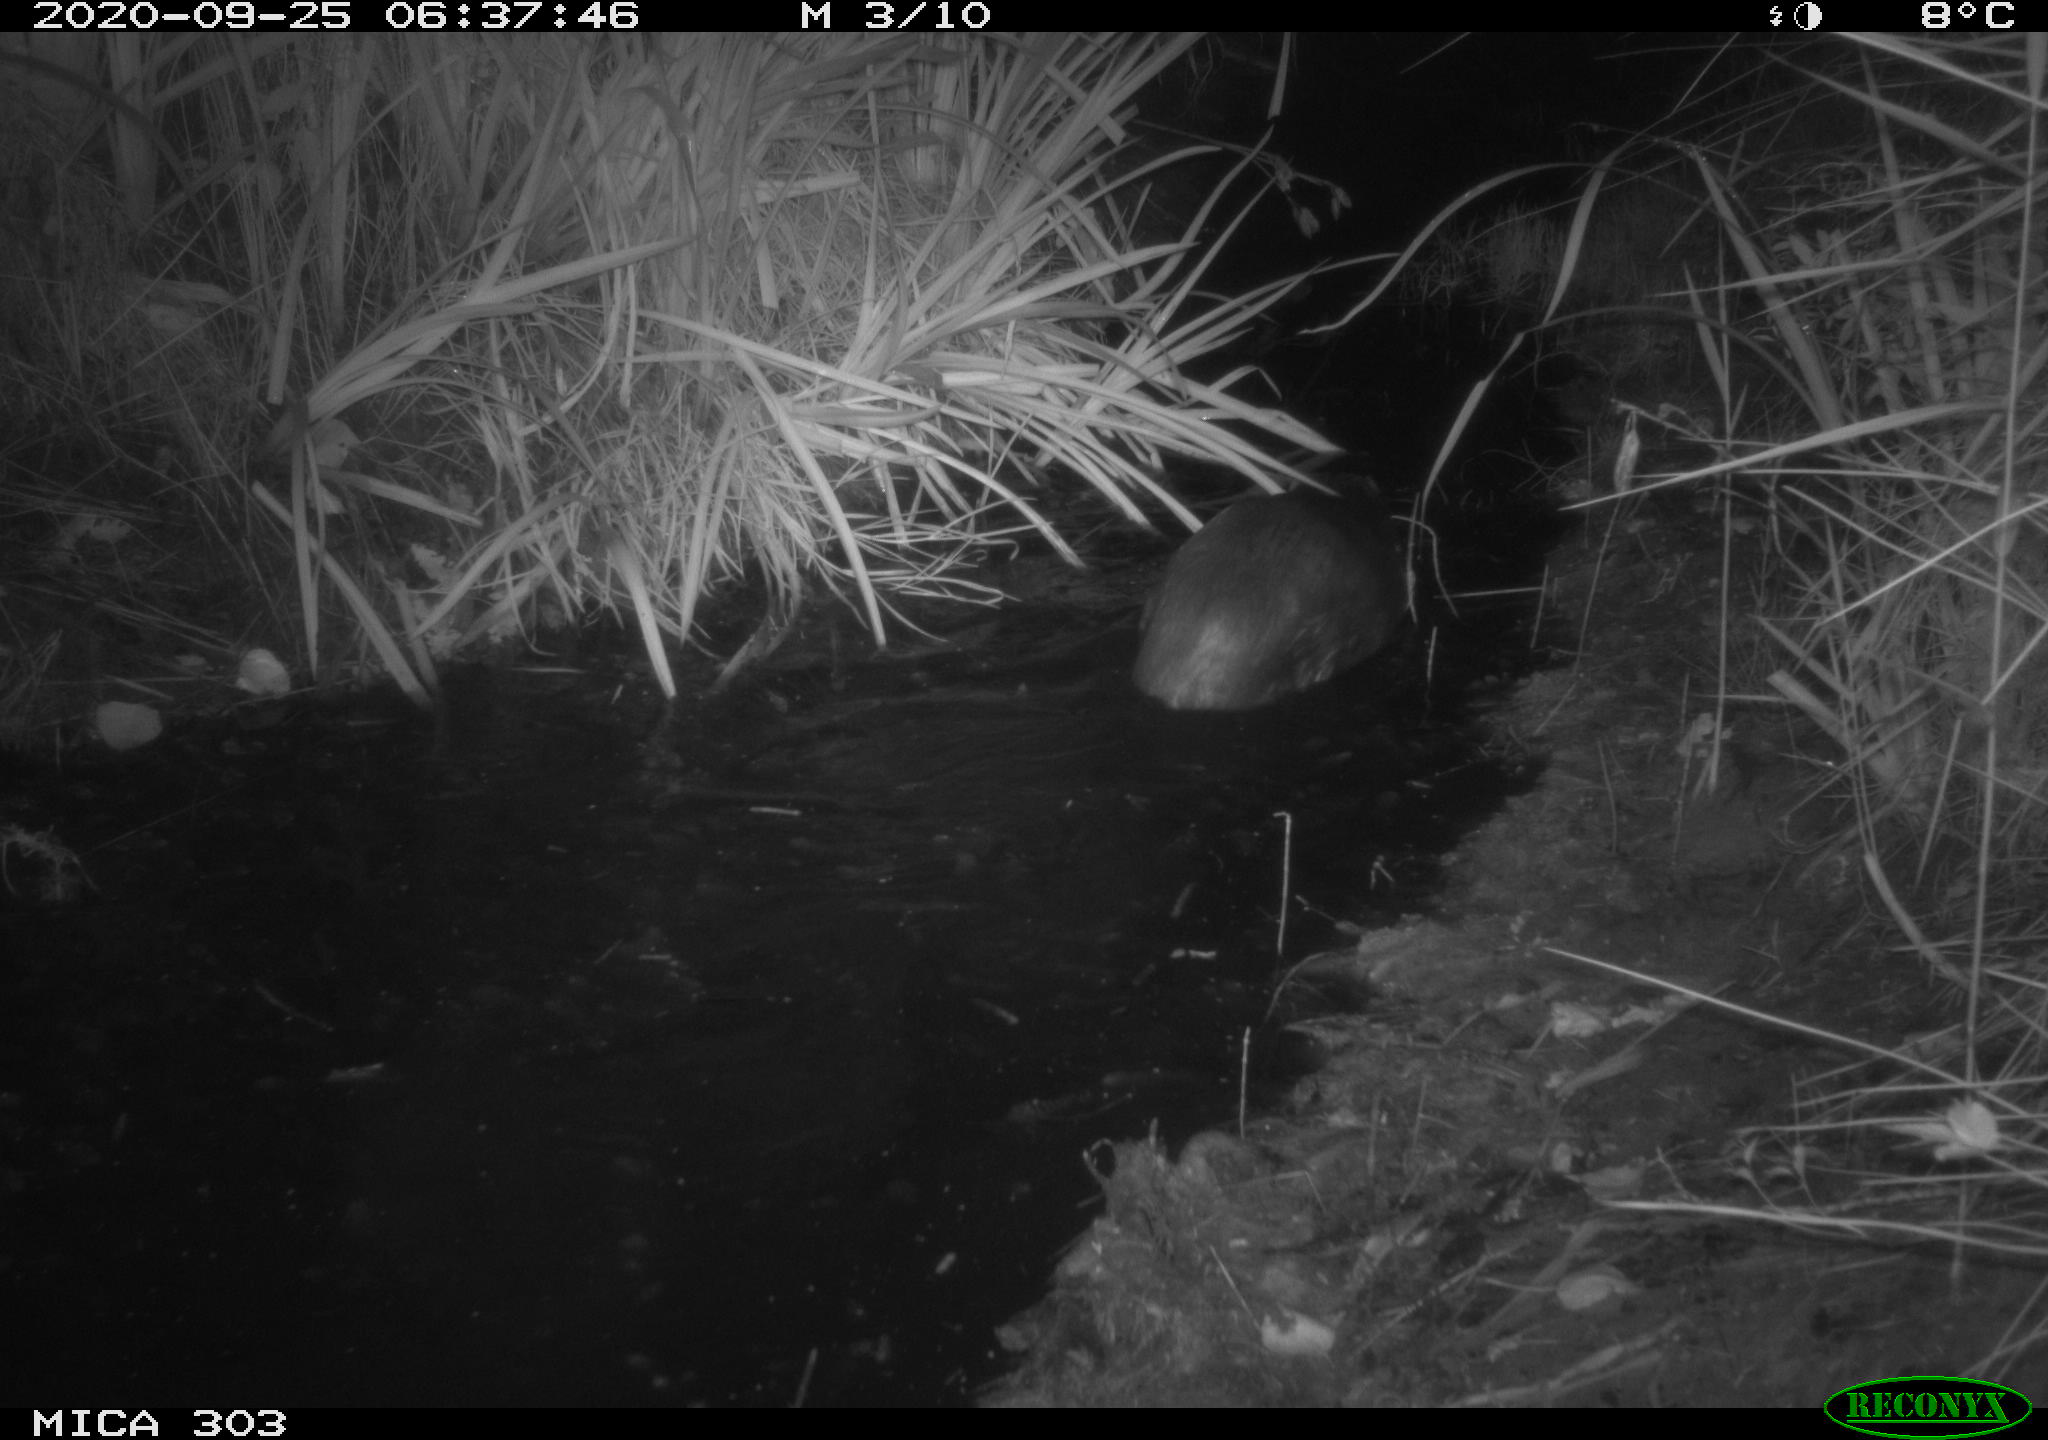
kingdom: Animalia
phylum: Chordata
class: Mammalia
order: Rodentia
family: Castoridae
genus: Castor
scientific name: Castor fiber
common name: Eurasian beaver
